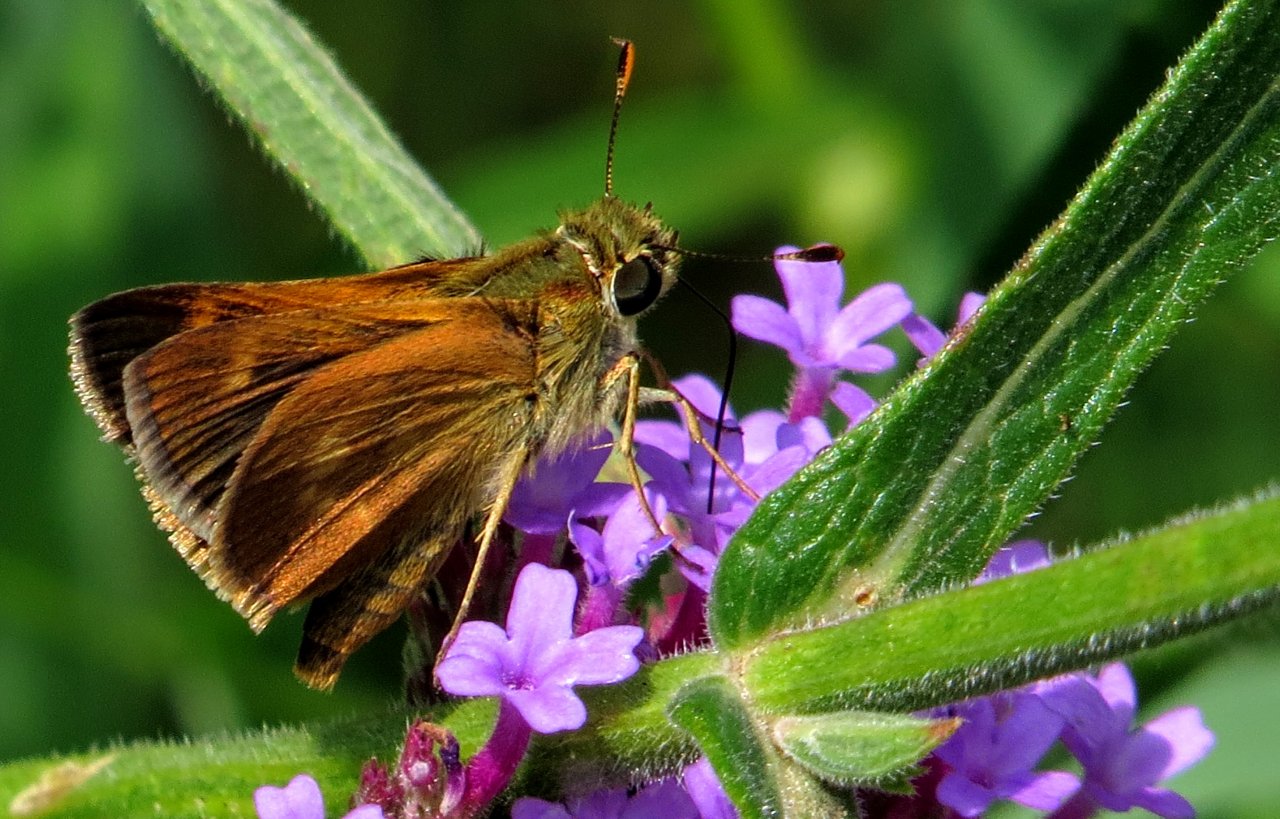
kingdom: Animalia
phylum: Arthropoda
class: Insecta
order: Lepidoptera
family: Hesperiidae
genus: Wallengrenia
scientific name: Wallengrenia otho
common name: Southern Broken-Dash
